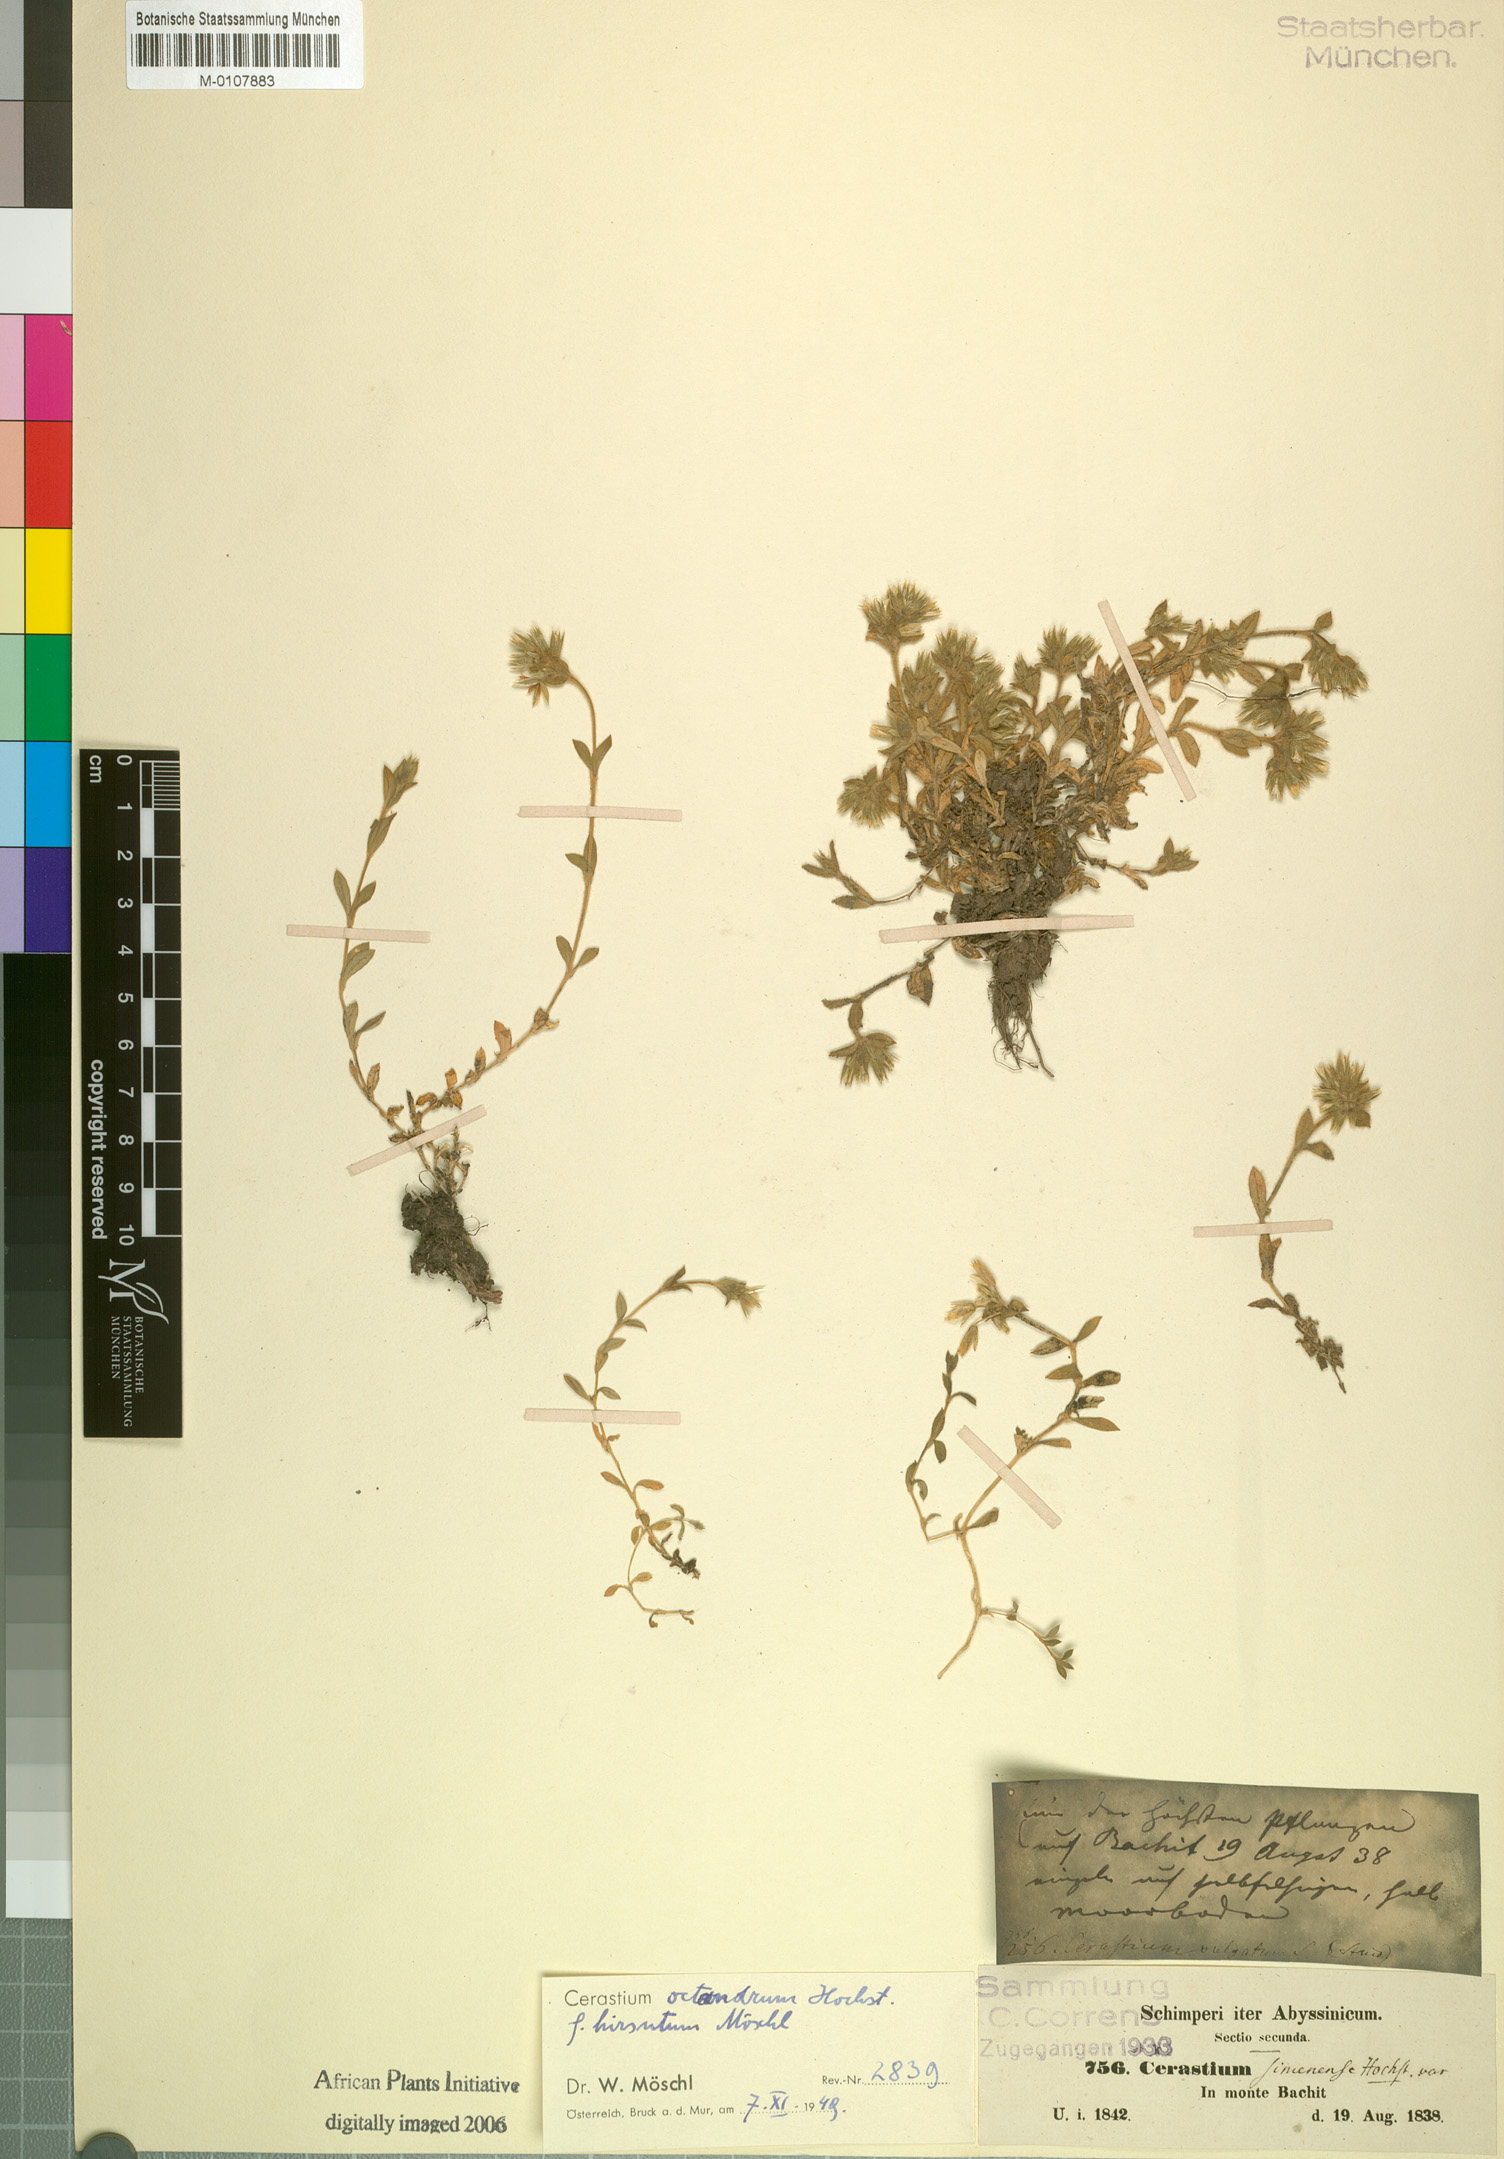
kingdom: Plantae
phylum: Tracheophyta
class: Magnoliopsida
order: Caryophyllales
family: Caryophyllaceae
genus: Cerastium
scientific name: Cerastium octandrum
